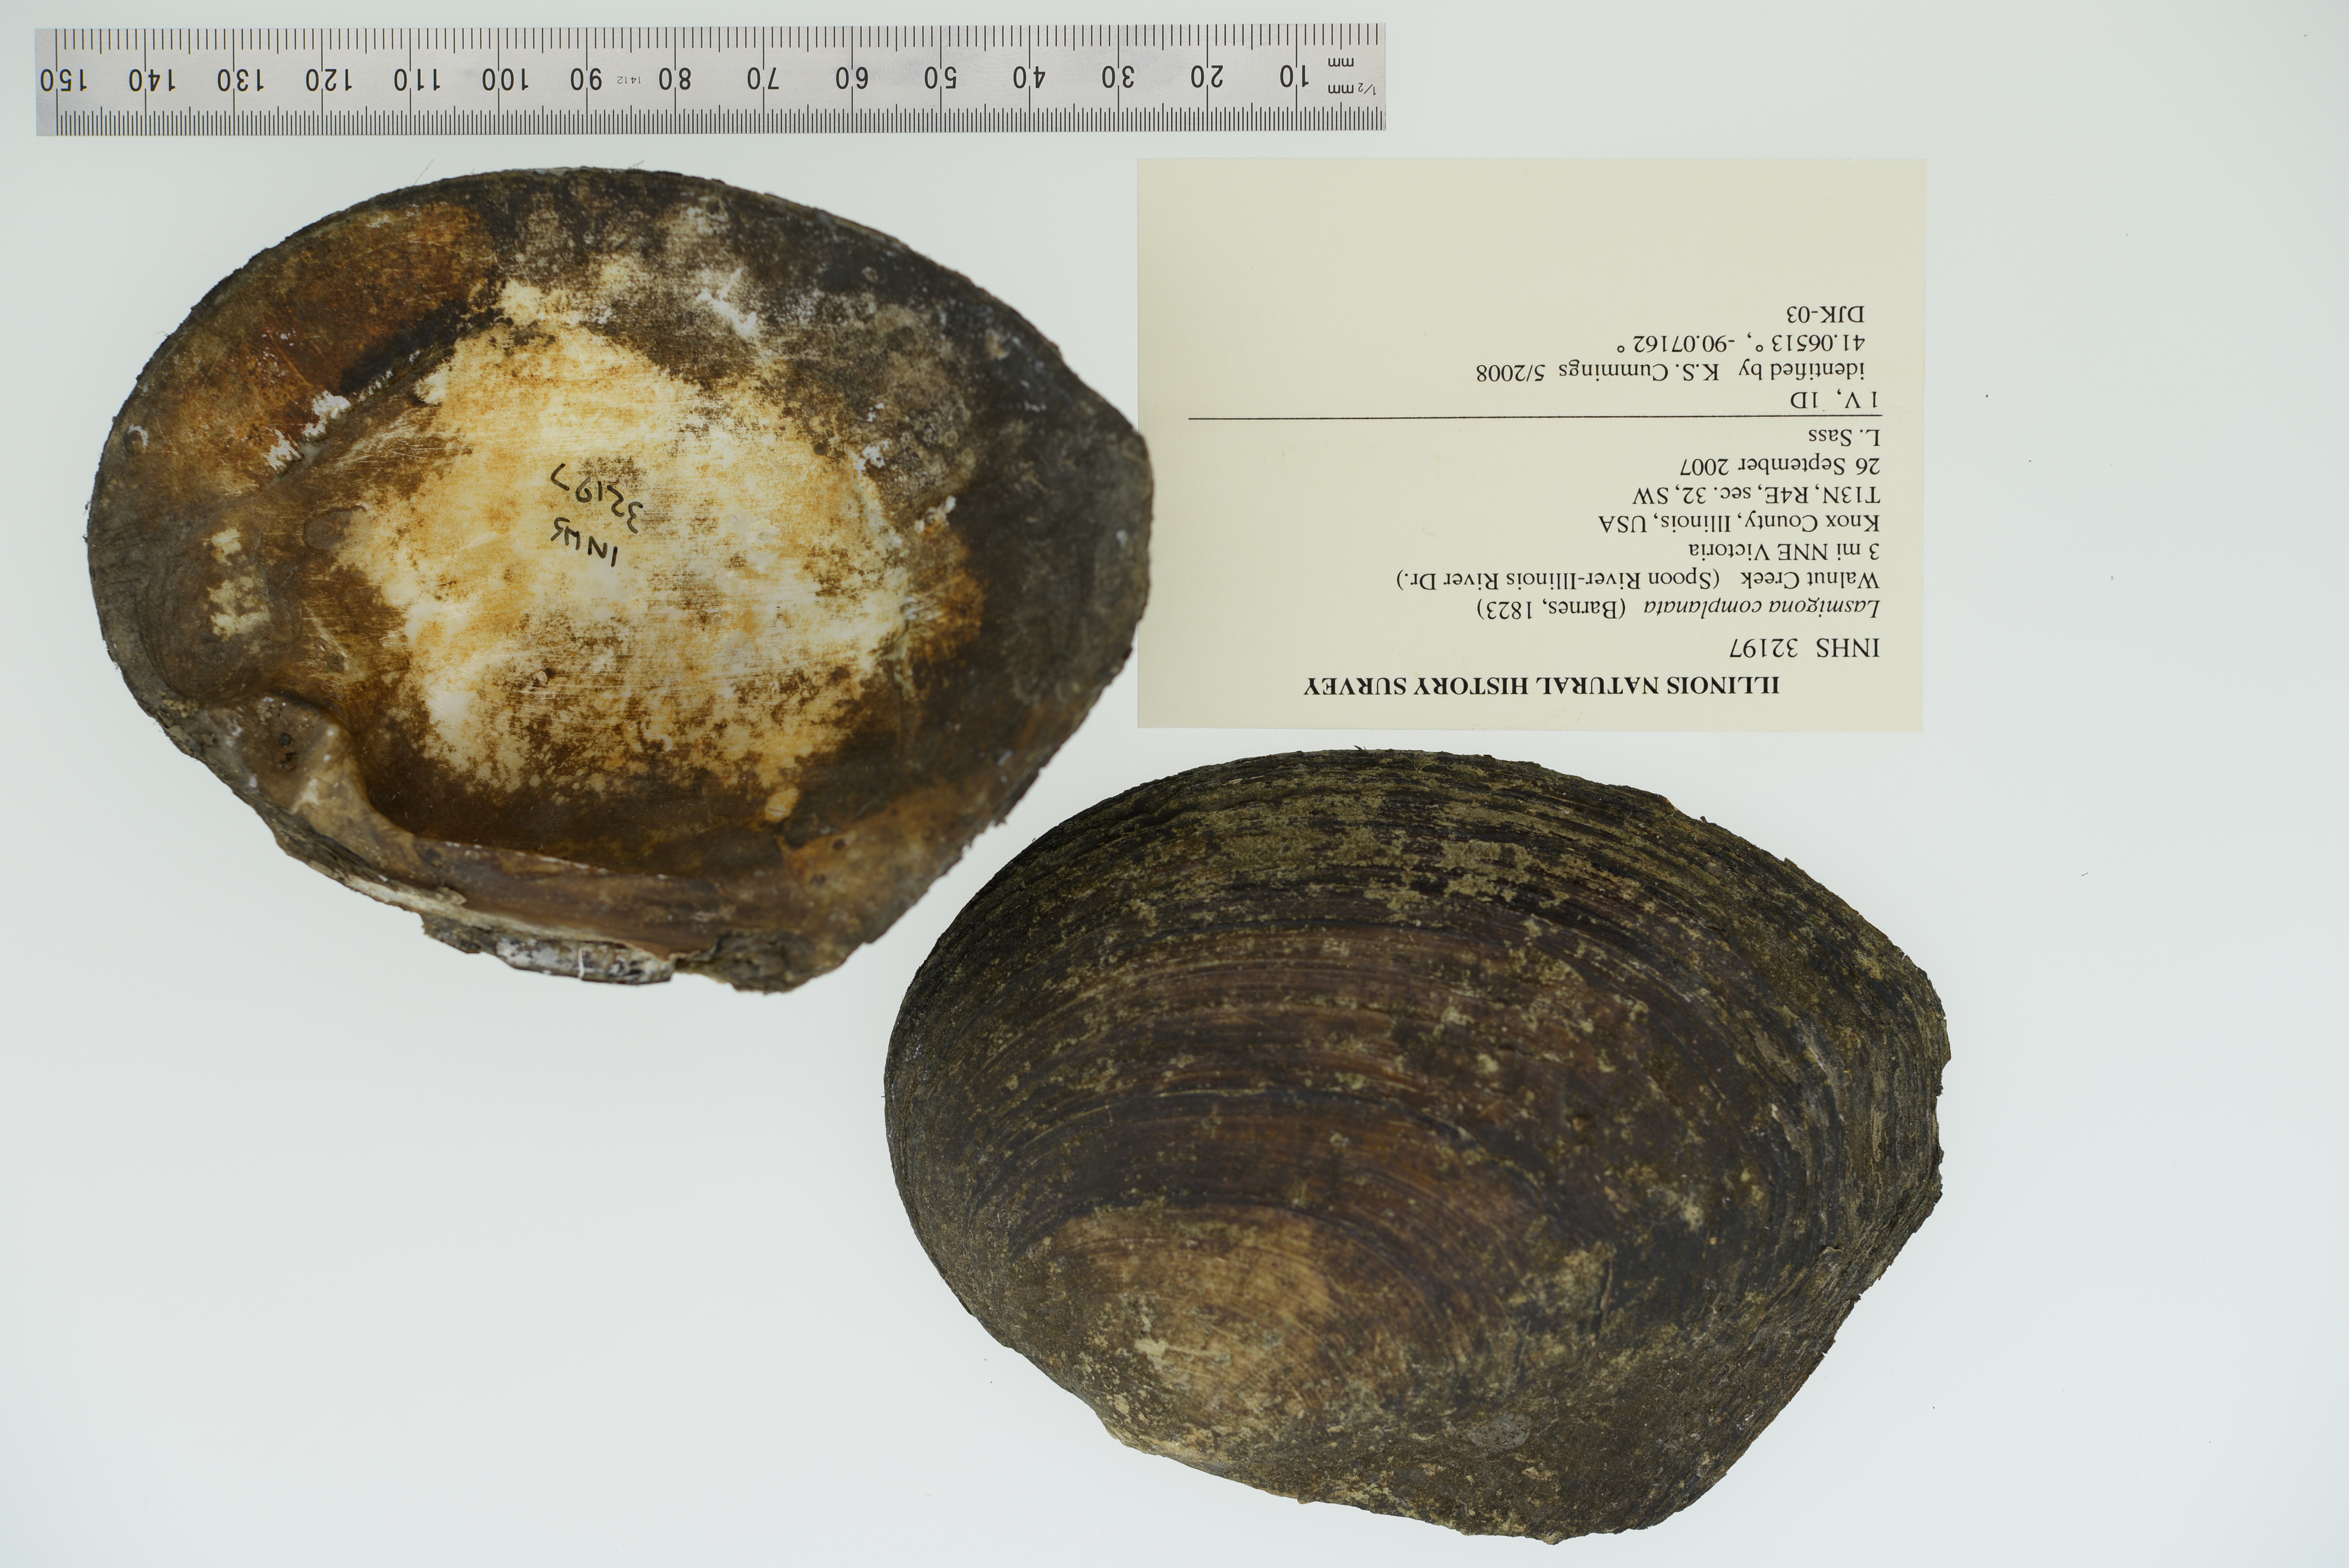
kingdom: Animalia
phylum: Mollusca
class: Bivalvia
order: Unionida
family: Unionidae
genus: Lasmigona
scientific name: Lasmigona complanata
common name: White heelsplitter
